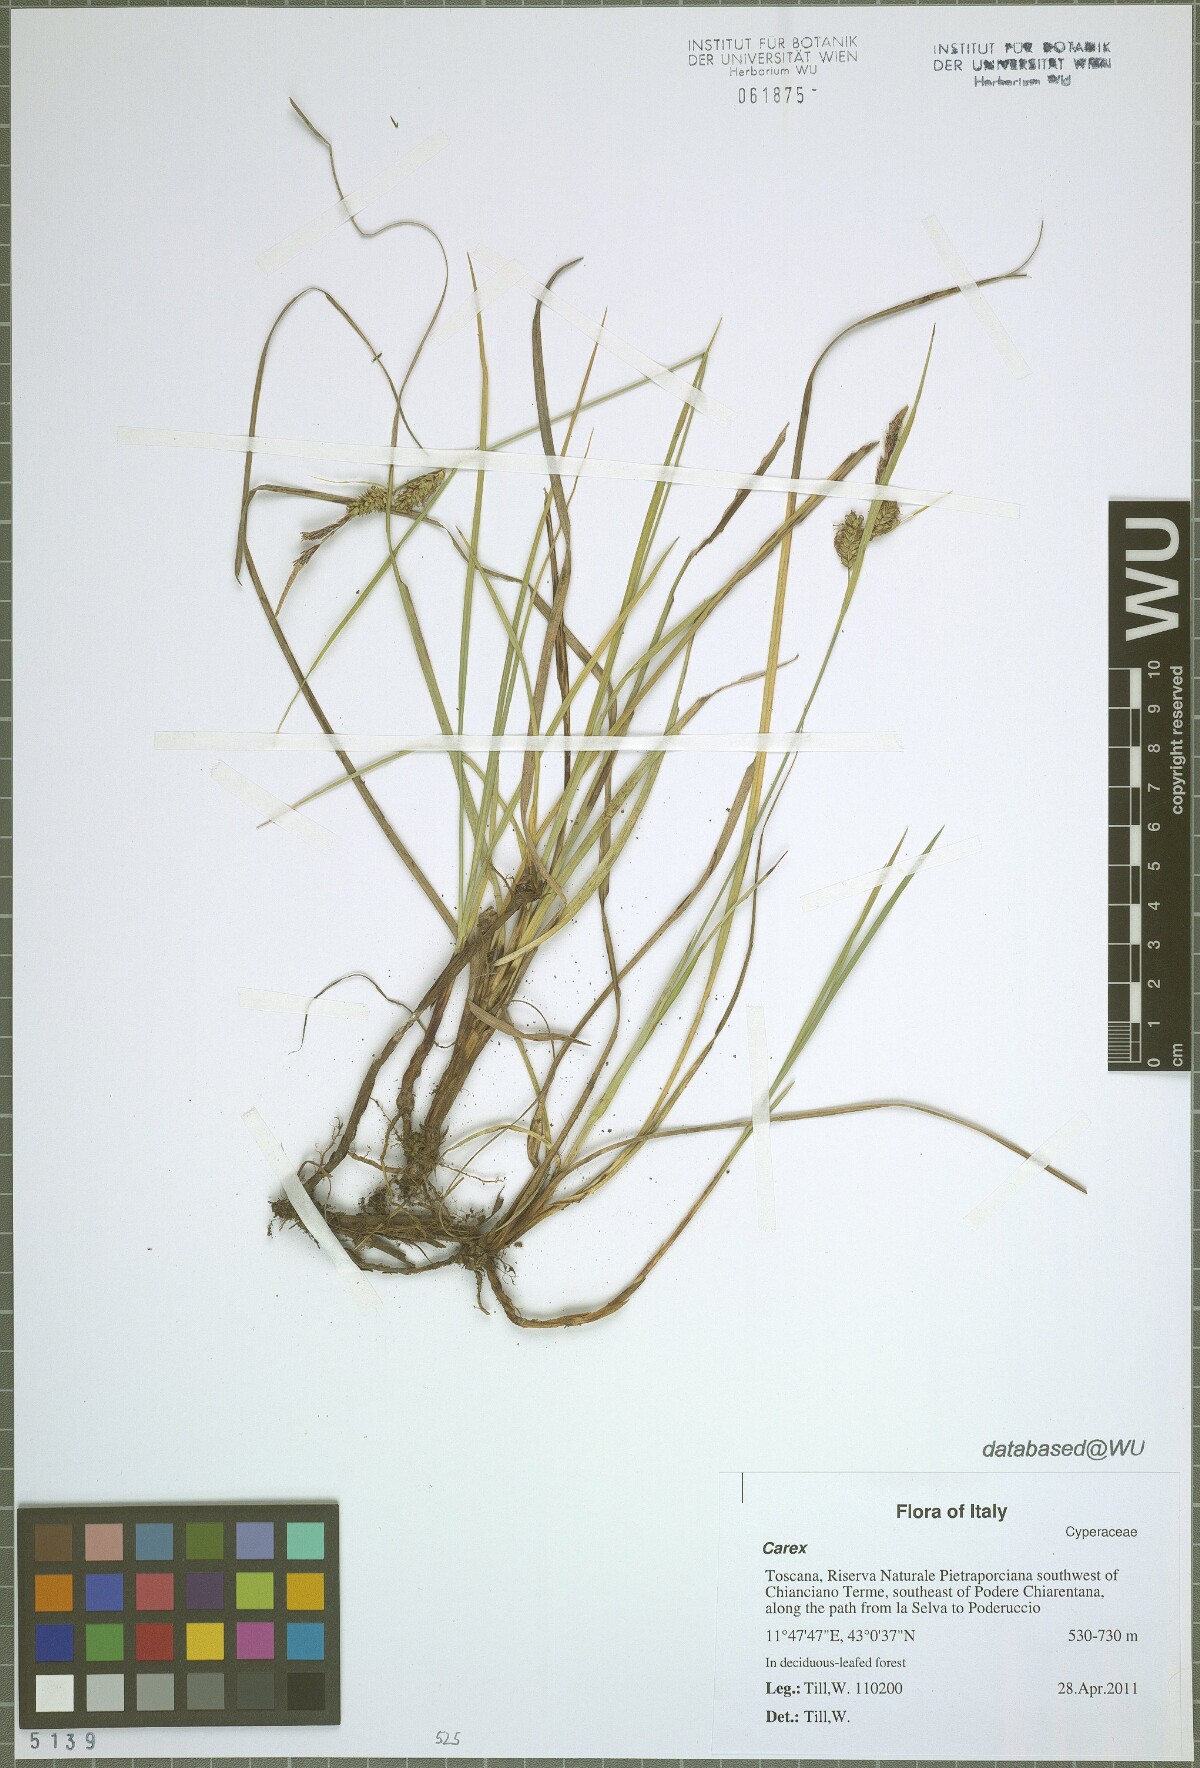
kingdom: Plantae
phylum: Tracheophyta
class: Liliopsida
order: Poales
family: Cyperaceae
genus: Carex
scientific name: Carex
